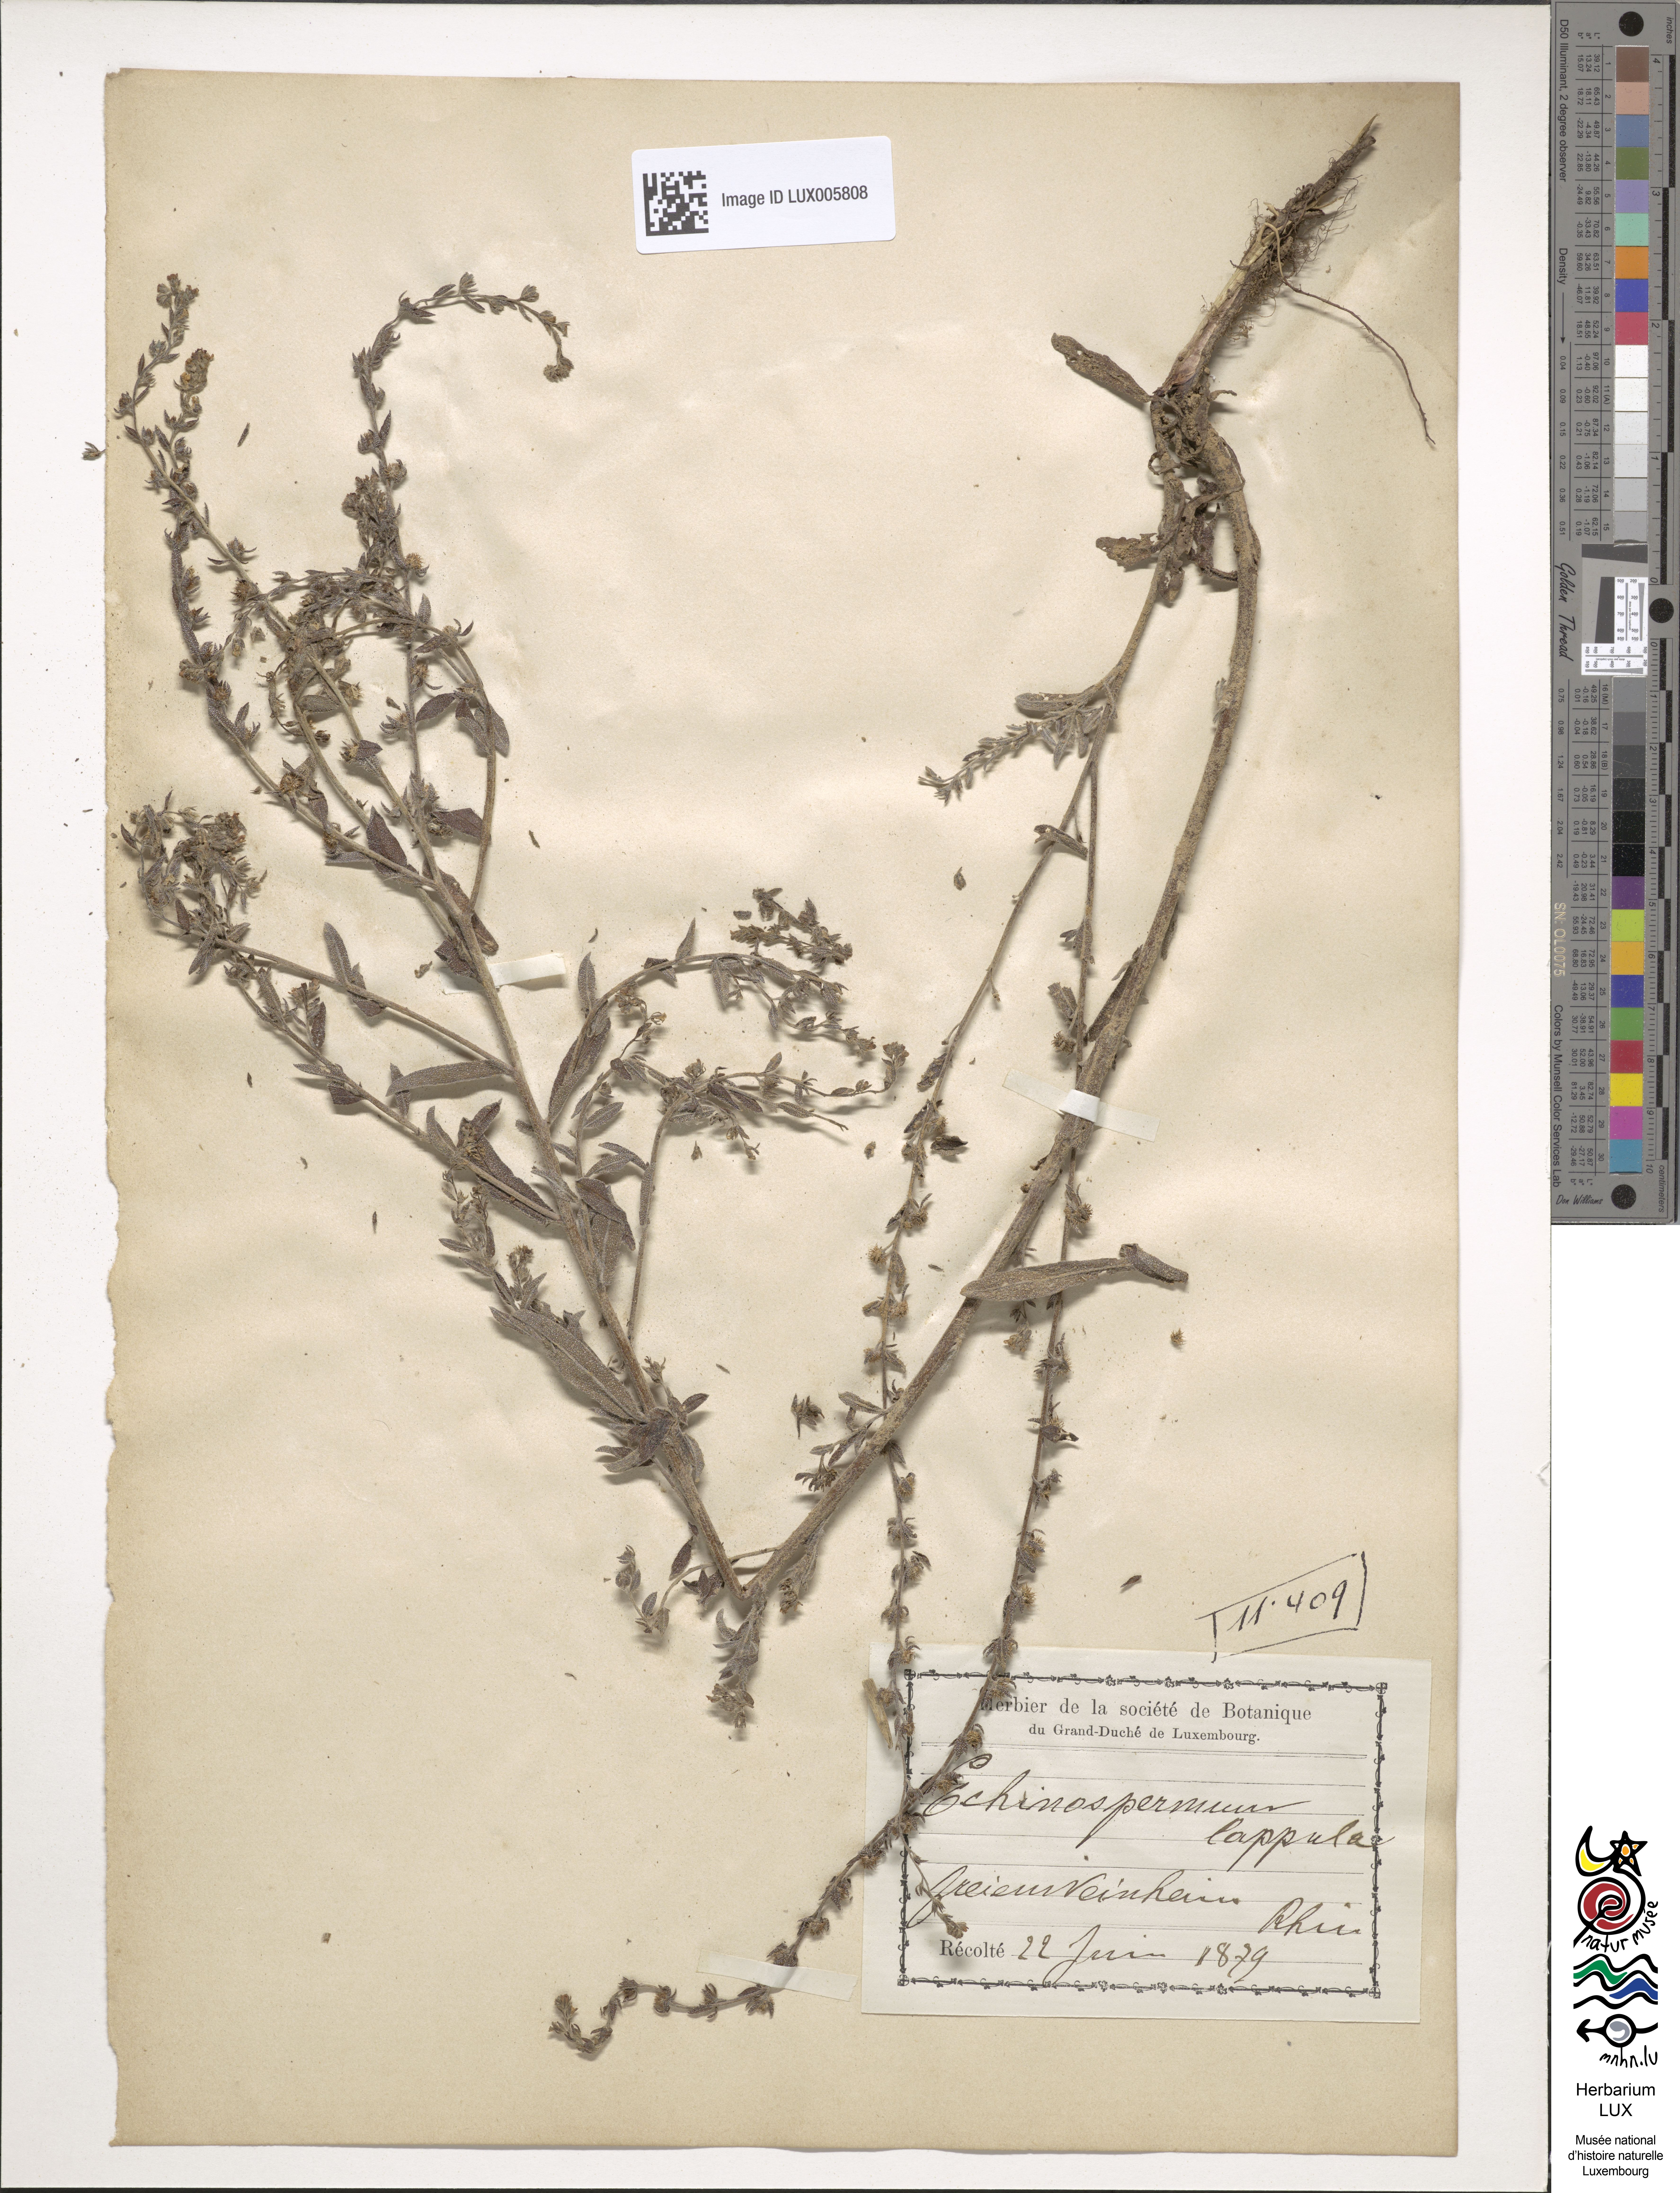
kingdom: Plantae
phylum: Tracheophyta
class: Magnoliopsida
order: Boraginales
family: Boraginaceae
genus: Lappula
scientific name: Lappula squarrosa
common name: European stickseed
